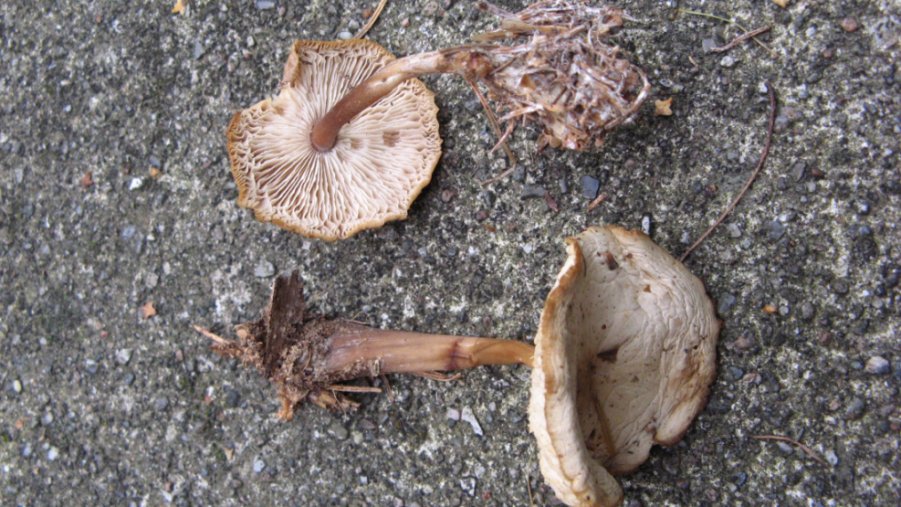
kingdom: Fungi
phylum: Basidiomycota
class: Agaricomycetes
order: Agaricales
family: Omphalotaceae
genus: Rhodocollybia
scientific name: Rhodocollybia asema
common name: horngrå fladhat
